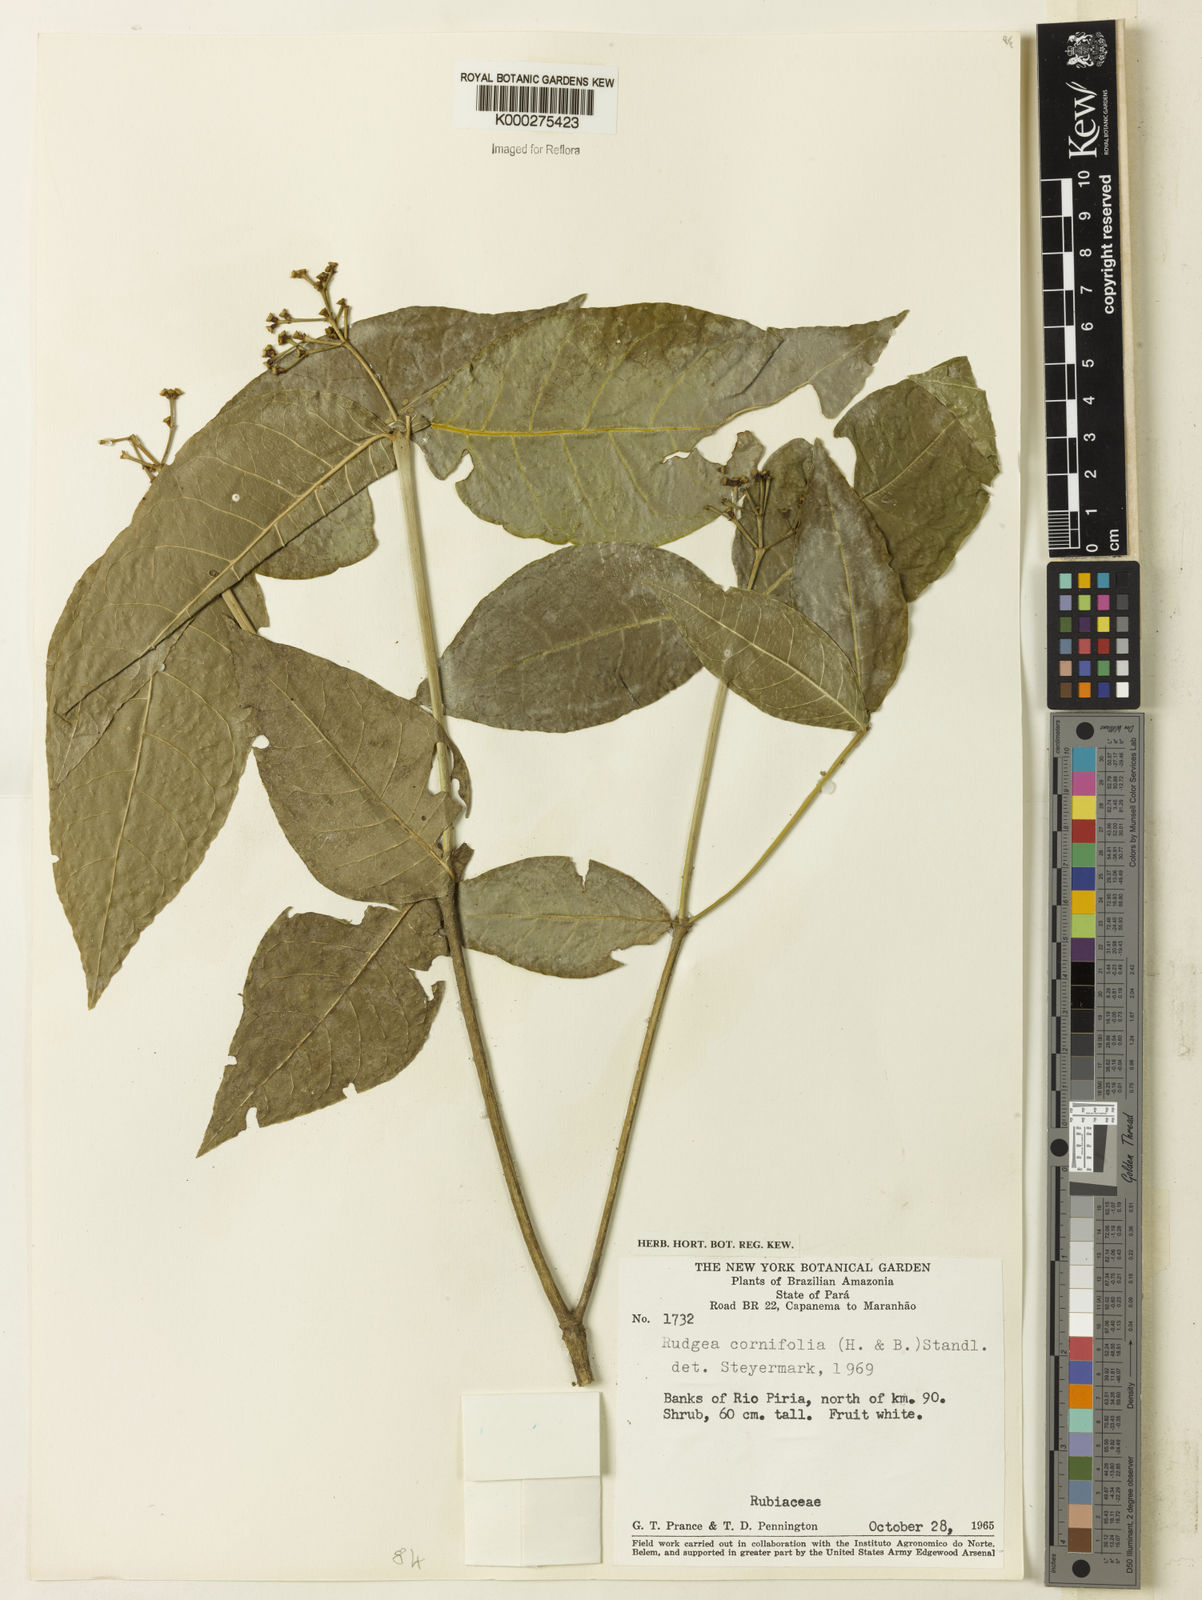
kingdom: Plantae
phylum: Tracheophyta
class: Magnoliopsida
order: Gentianales
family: Rubiaceae
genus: Rudgea
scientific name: Rudgea cornifolia
